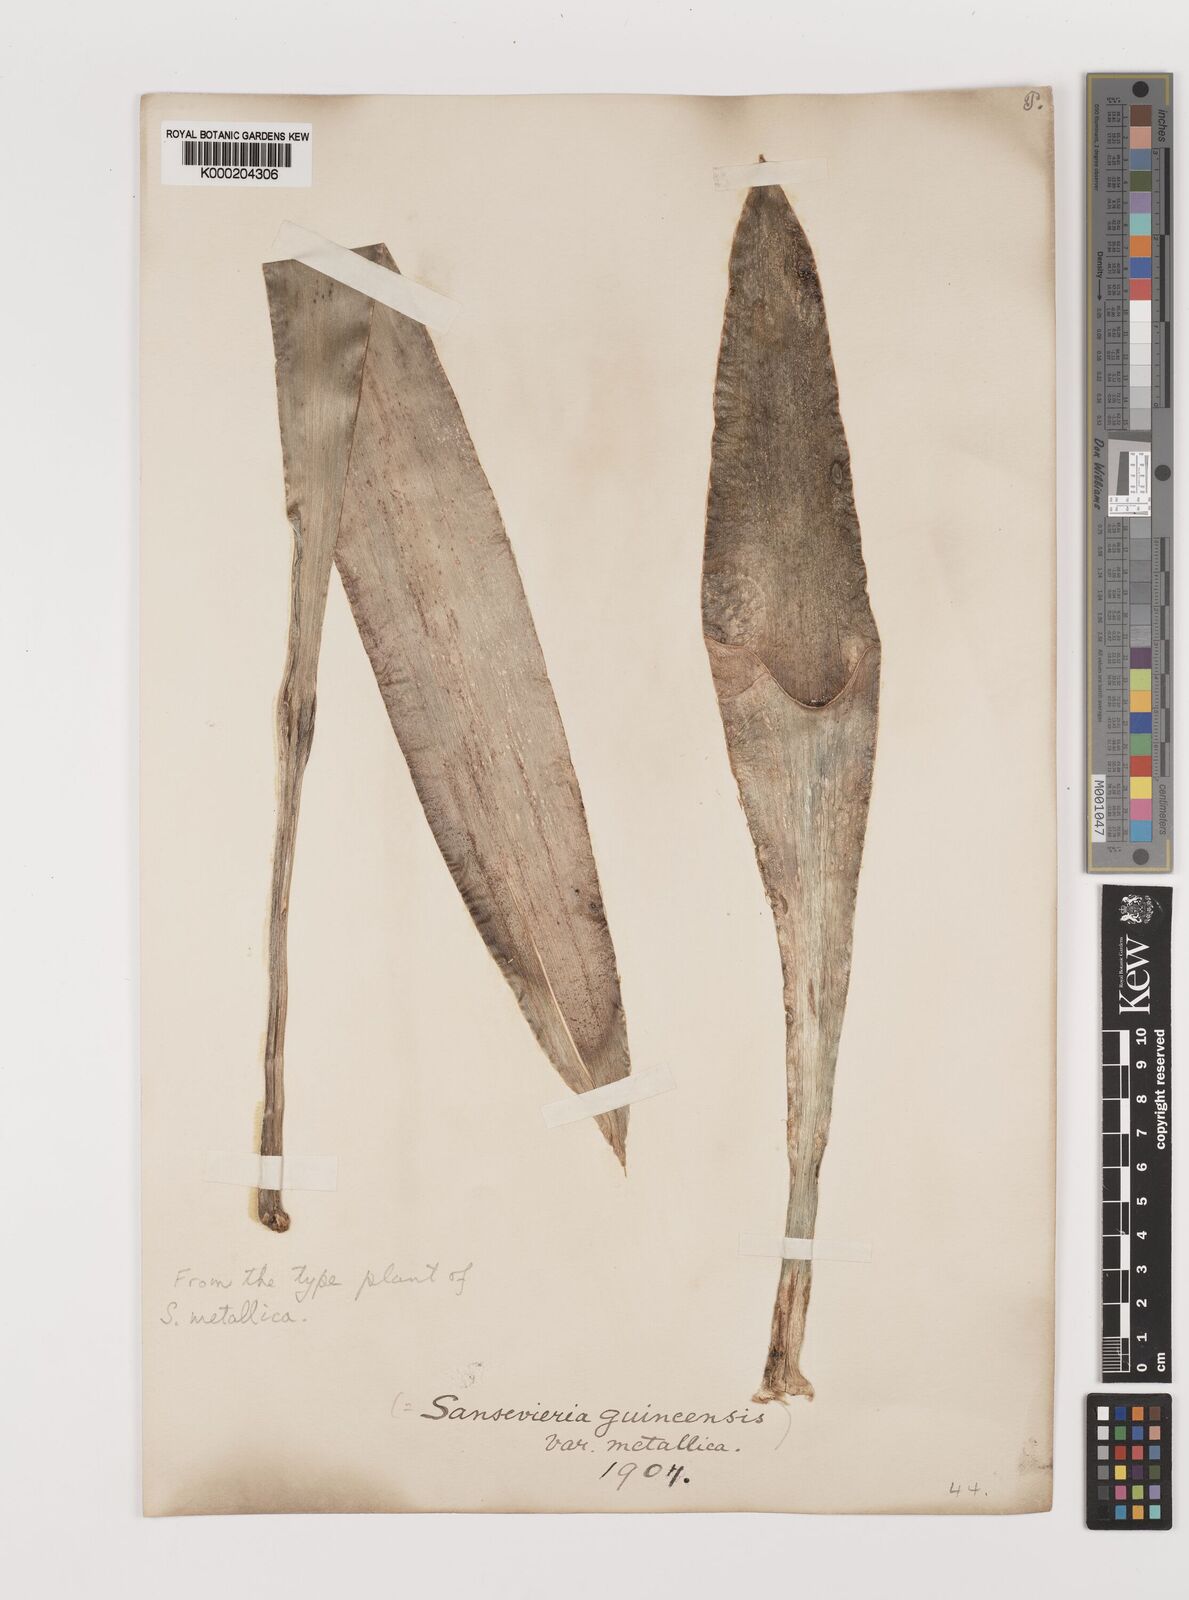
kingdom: Plantae
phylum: Tracheophyta
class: Liliopsida
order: Asparagales
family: Asparagaceae
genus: Dracaena
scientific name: Dracaena
